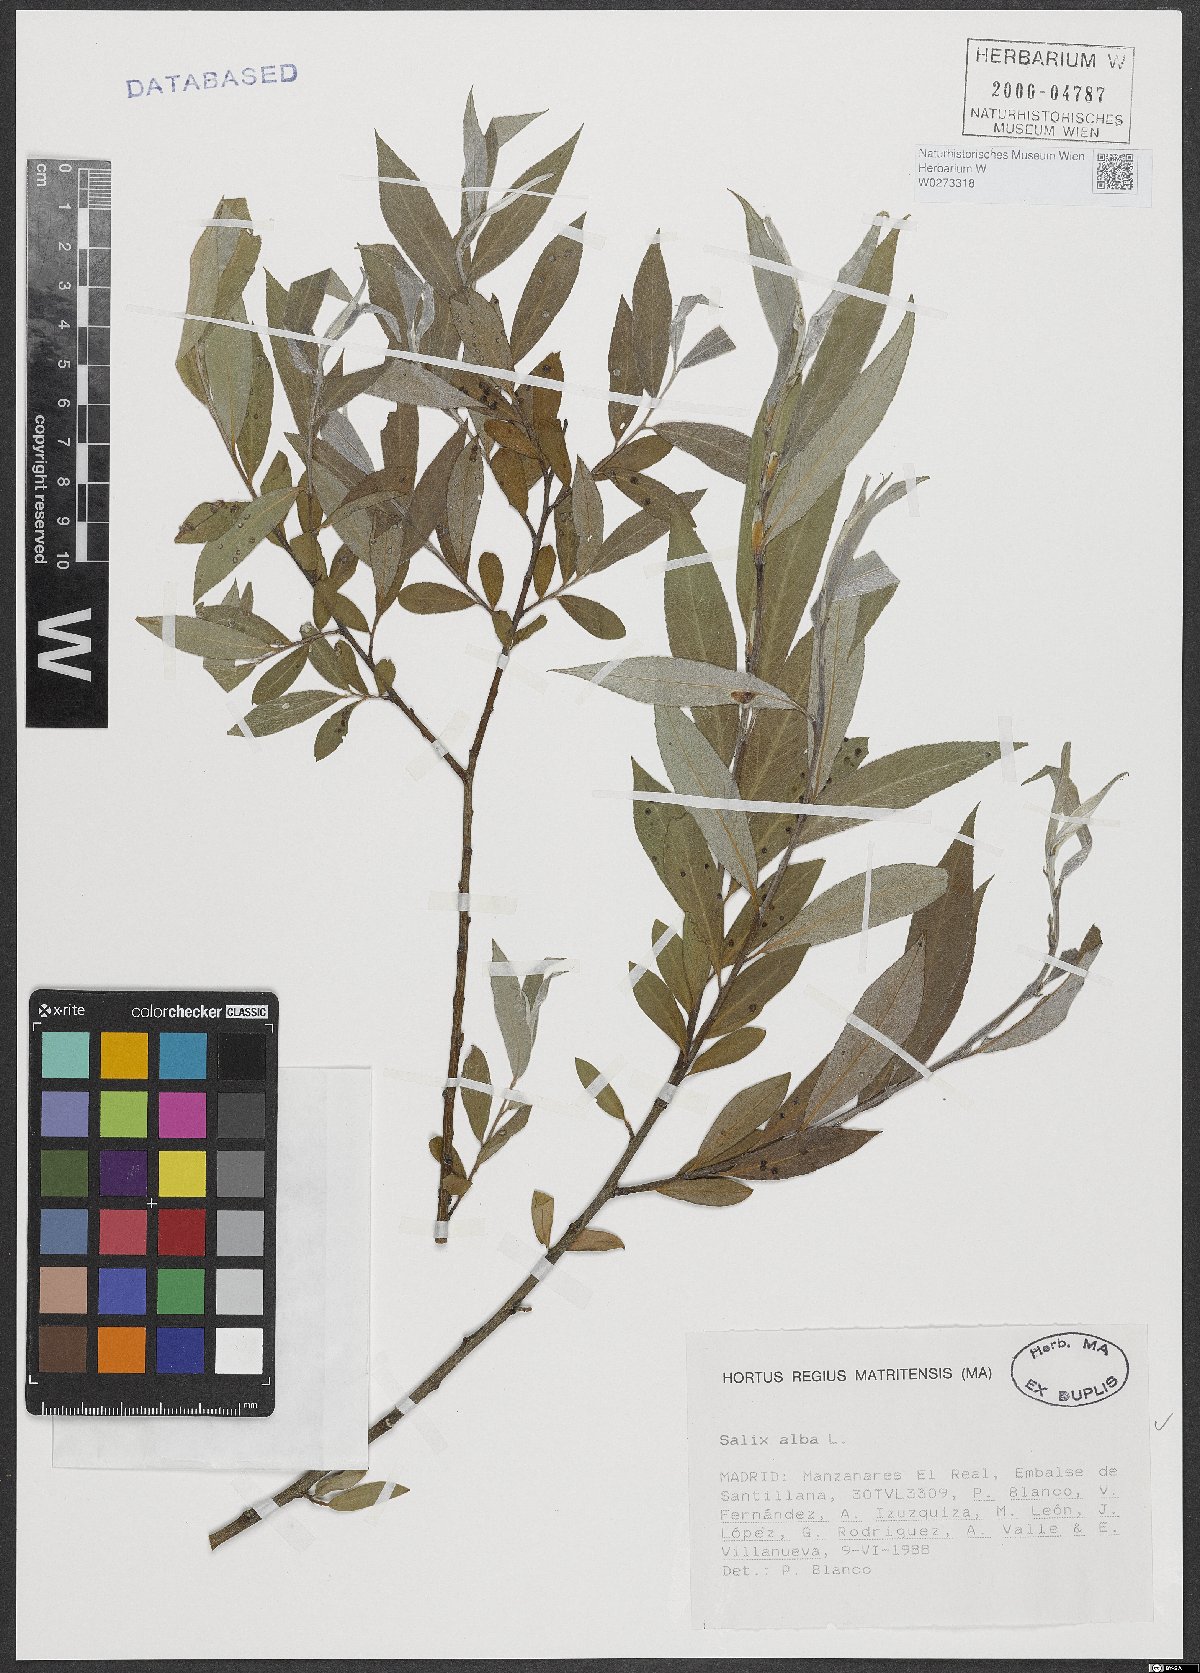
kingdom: Plantae
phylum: Tracheophyta
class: Magnoliopsida
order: Malpighiales
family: Salicaceae
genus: Salix
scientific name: Salix alba
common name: White willow
